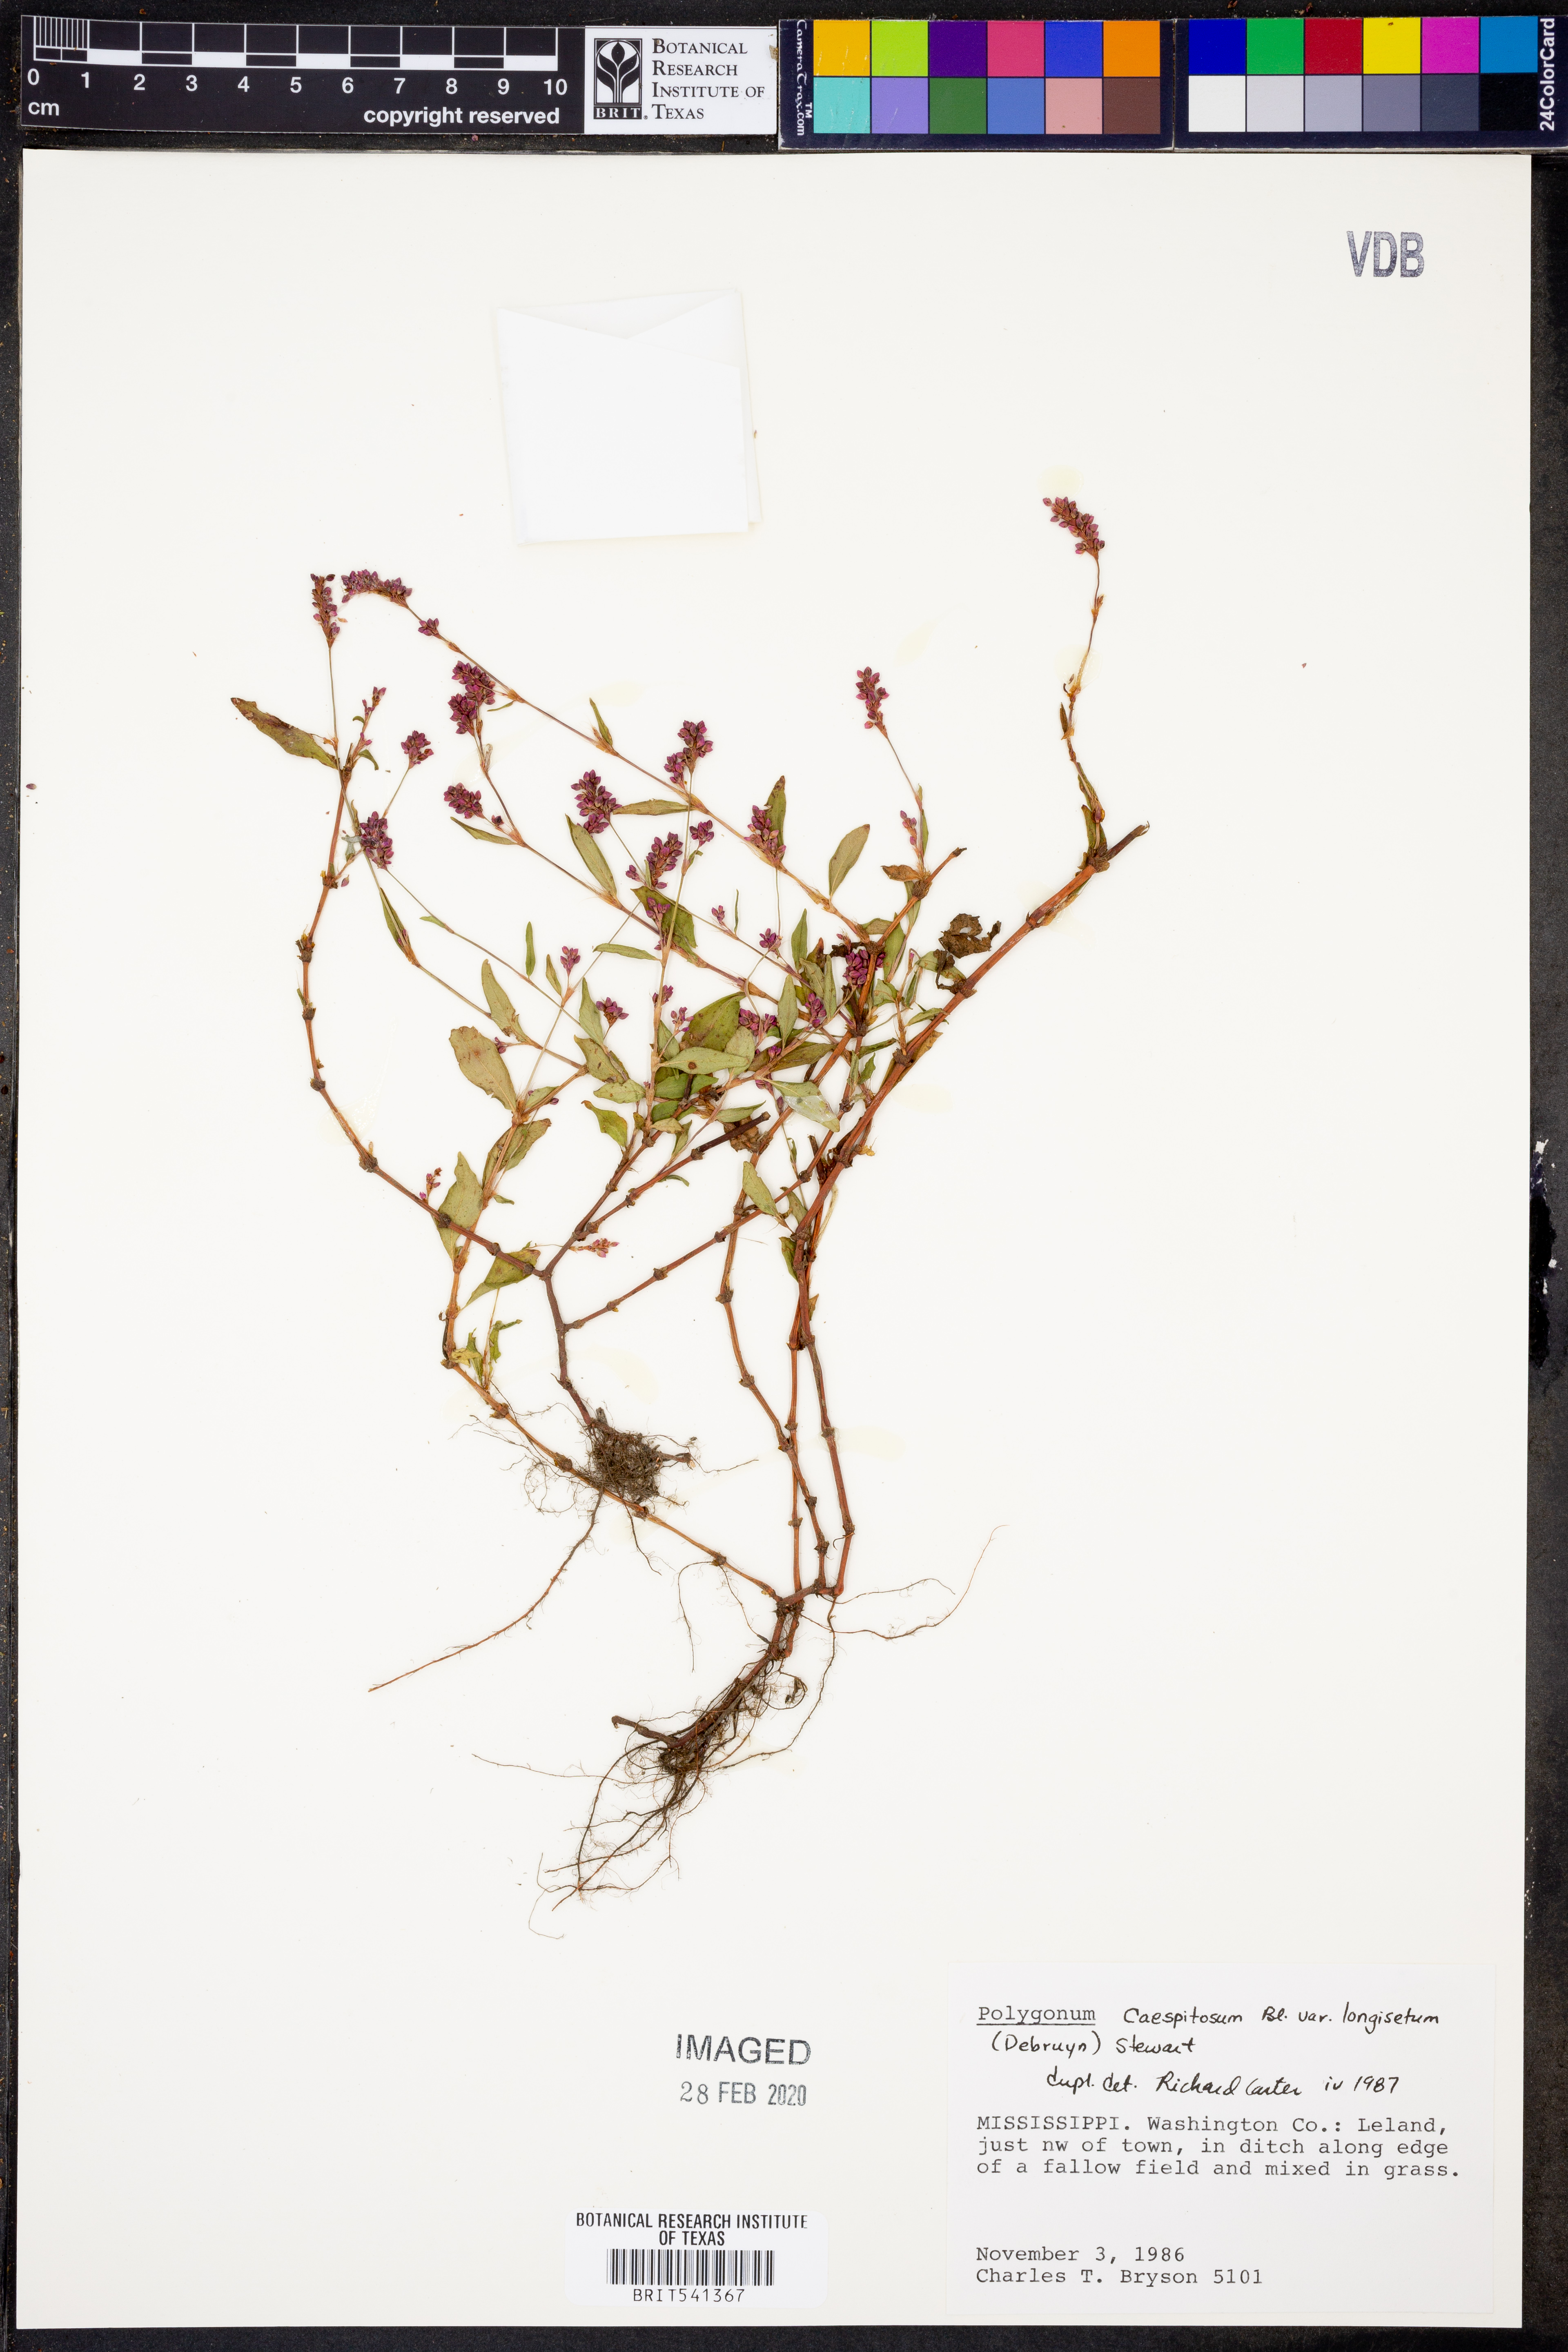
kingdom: Plantae
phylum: Tracheophyta
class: Magnoliopsida
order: Caryophyllales
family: Polygonaceae
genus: Persicaria
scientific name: Persicaria longiseta
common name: Bristly lady's-thumb
